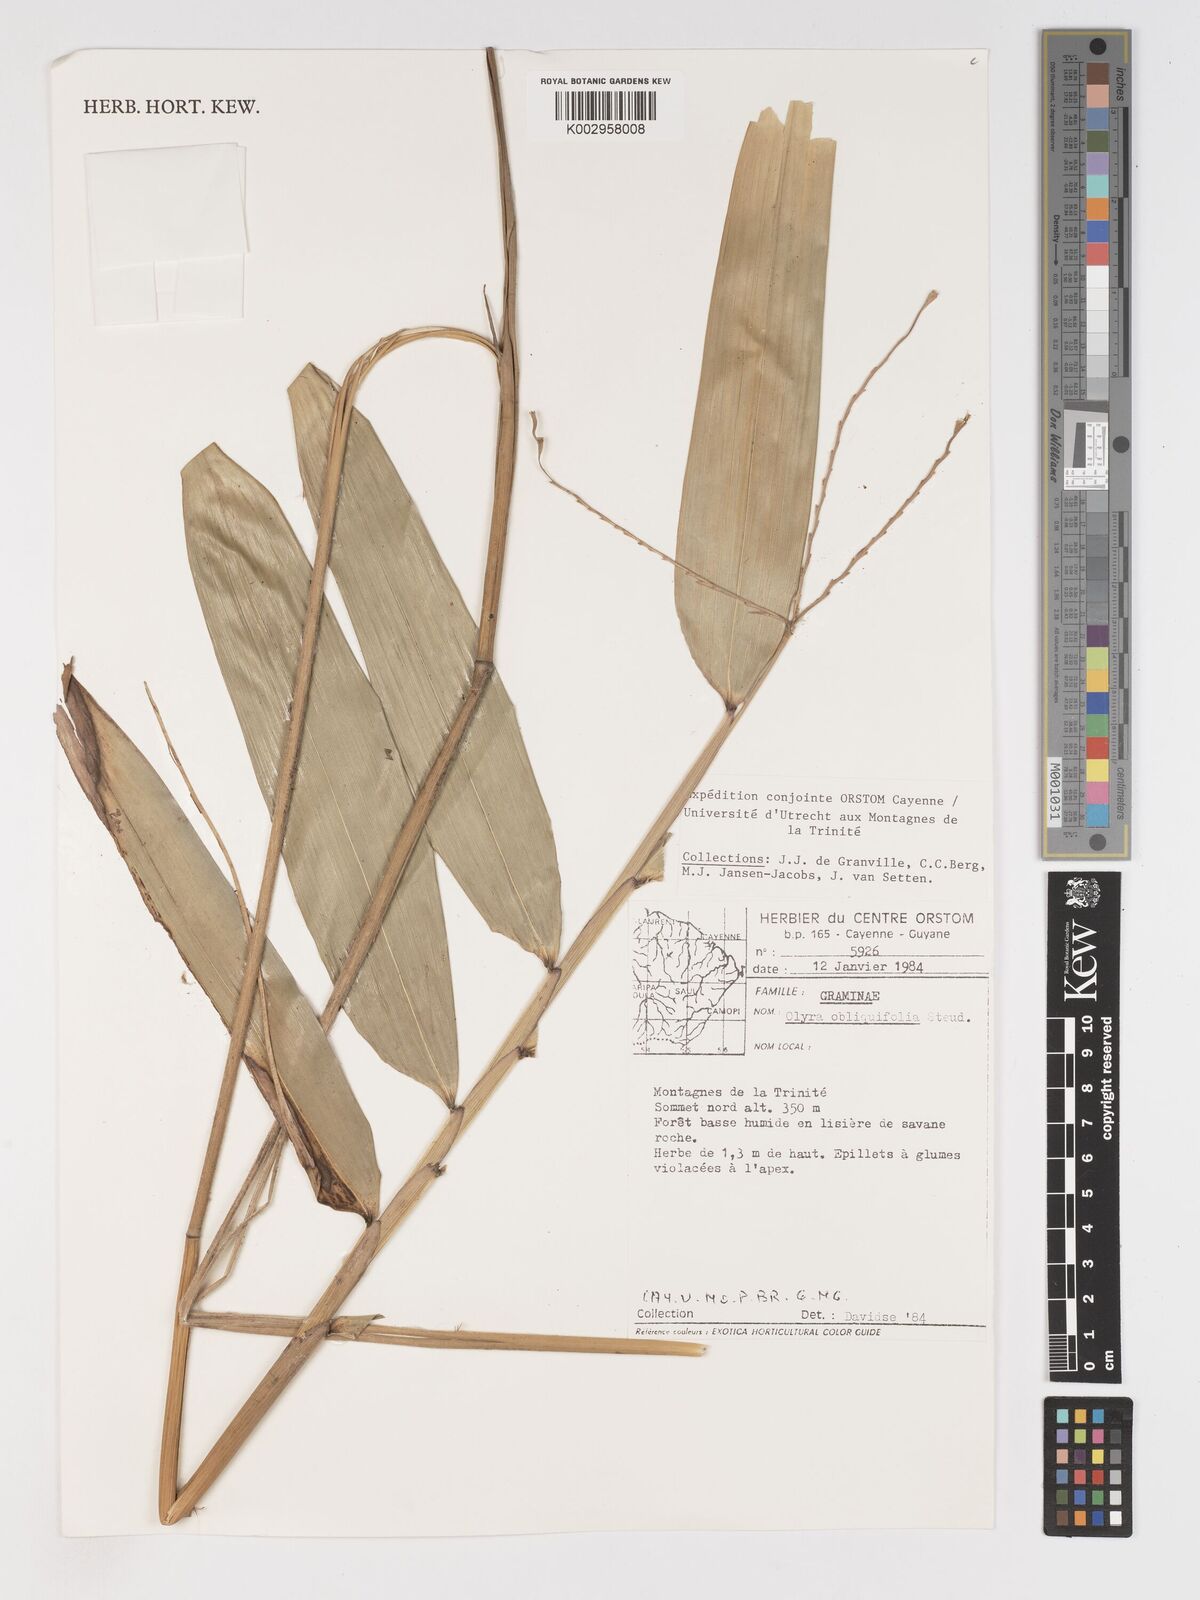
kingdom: Plantae
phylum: Tracheophyta
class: Liliopsida
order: Poales
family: Poaceae
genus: Olyra
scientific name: Olyra obliquifolia
